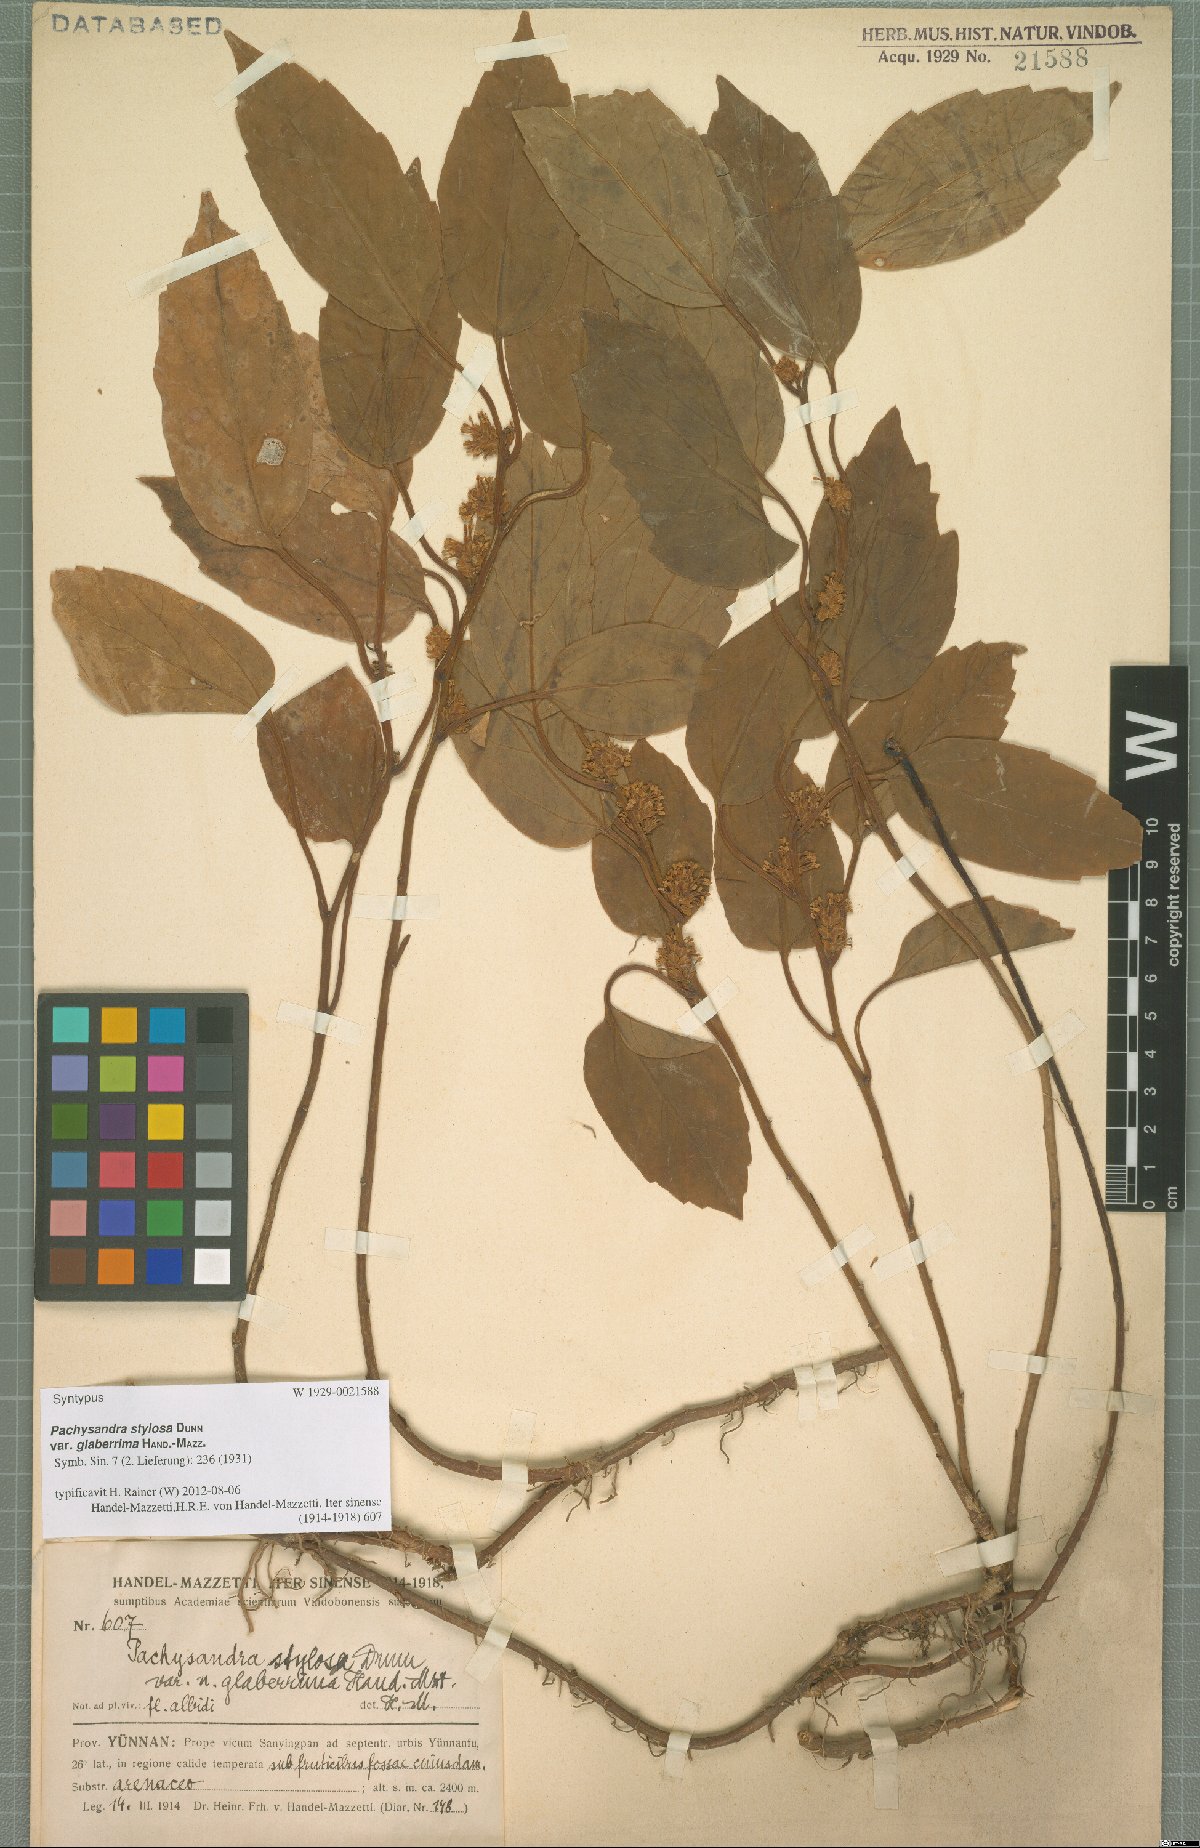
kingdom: Plantae
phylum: Tracheophyta
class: Magnoliopsida
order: Buxales
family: Buxaceae
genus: Pachysandra
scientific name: Pachysandra axillaris
